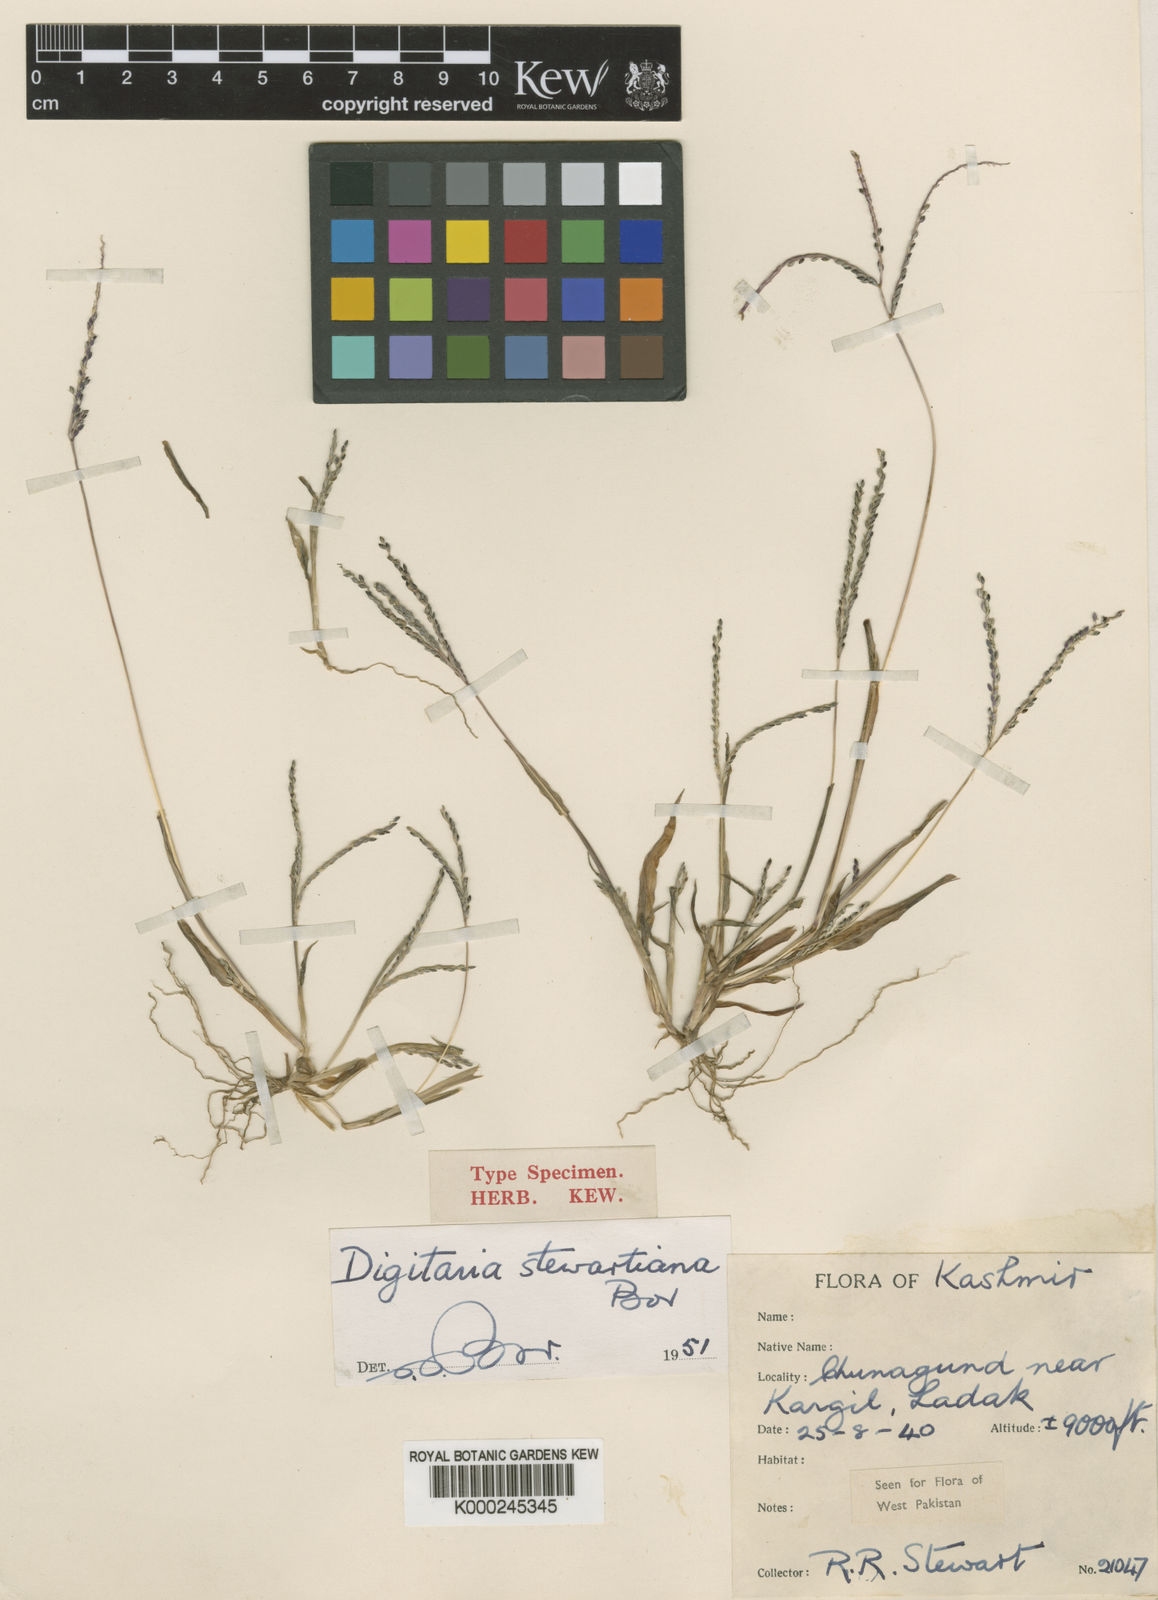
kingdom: Plantae
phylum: Tracheophyta
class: Liliopsida
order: Poales
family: Poaceae
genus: Digitaria
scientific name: Digitaria stewartiana
